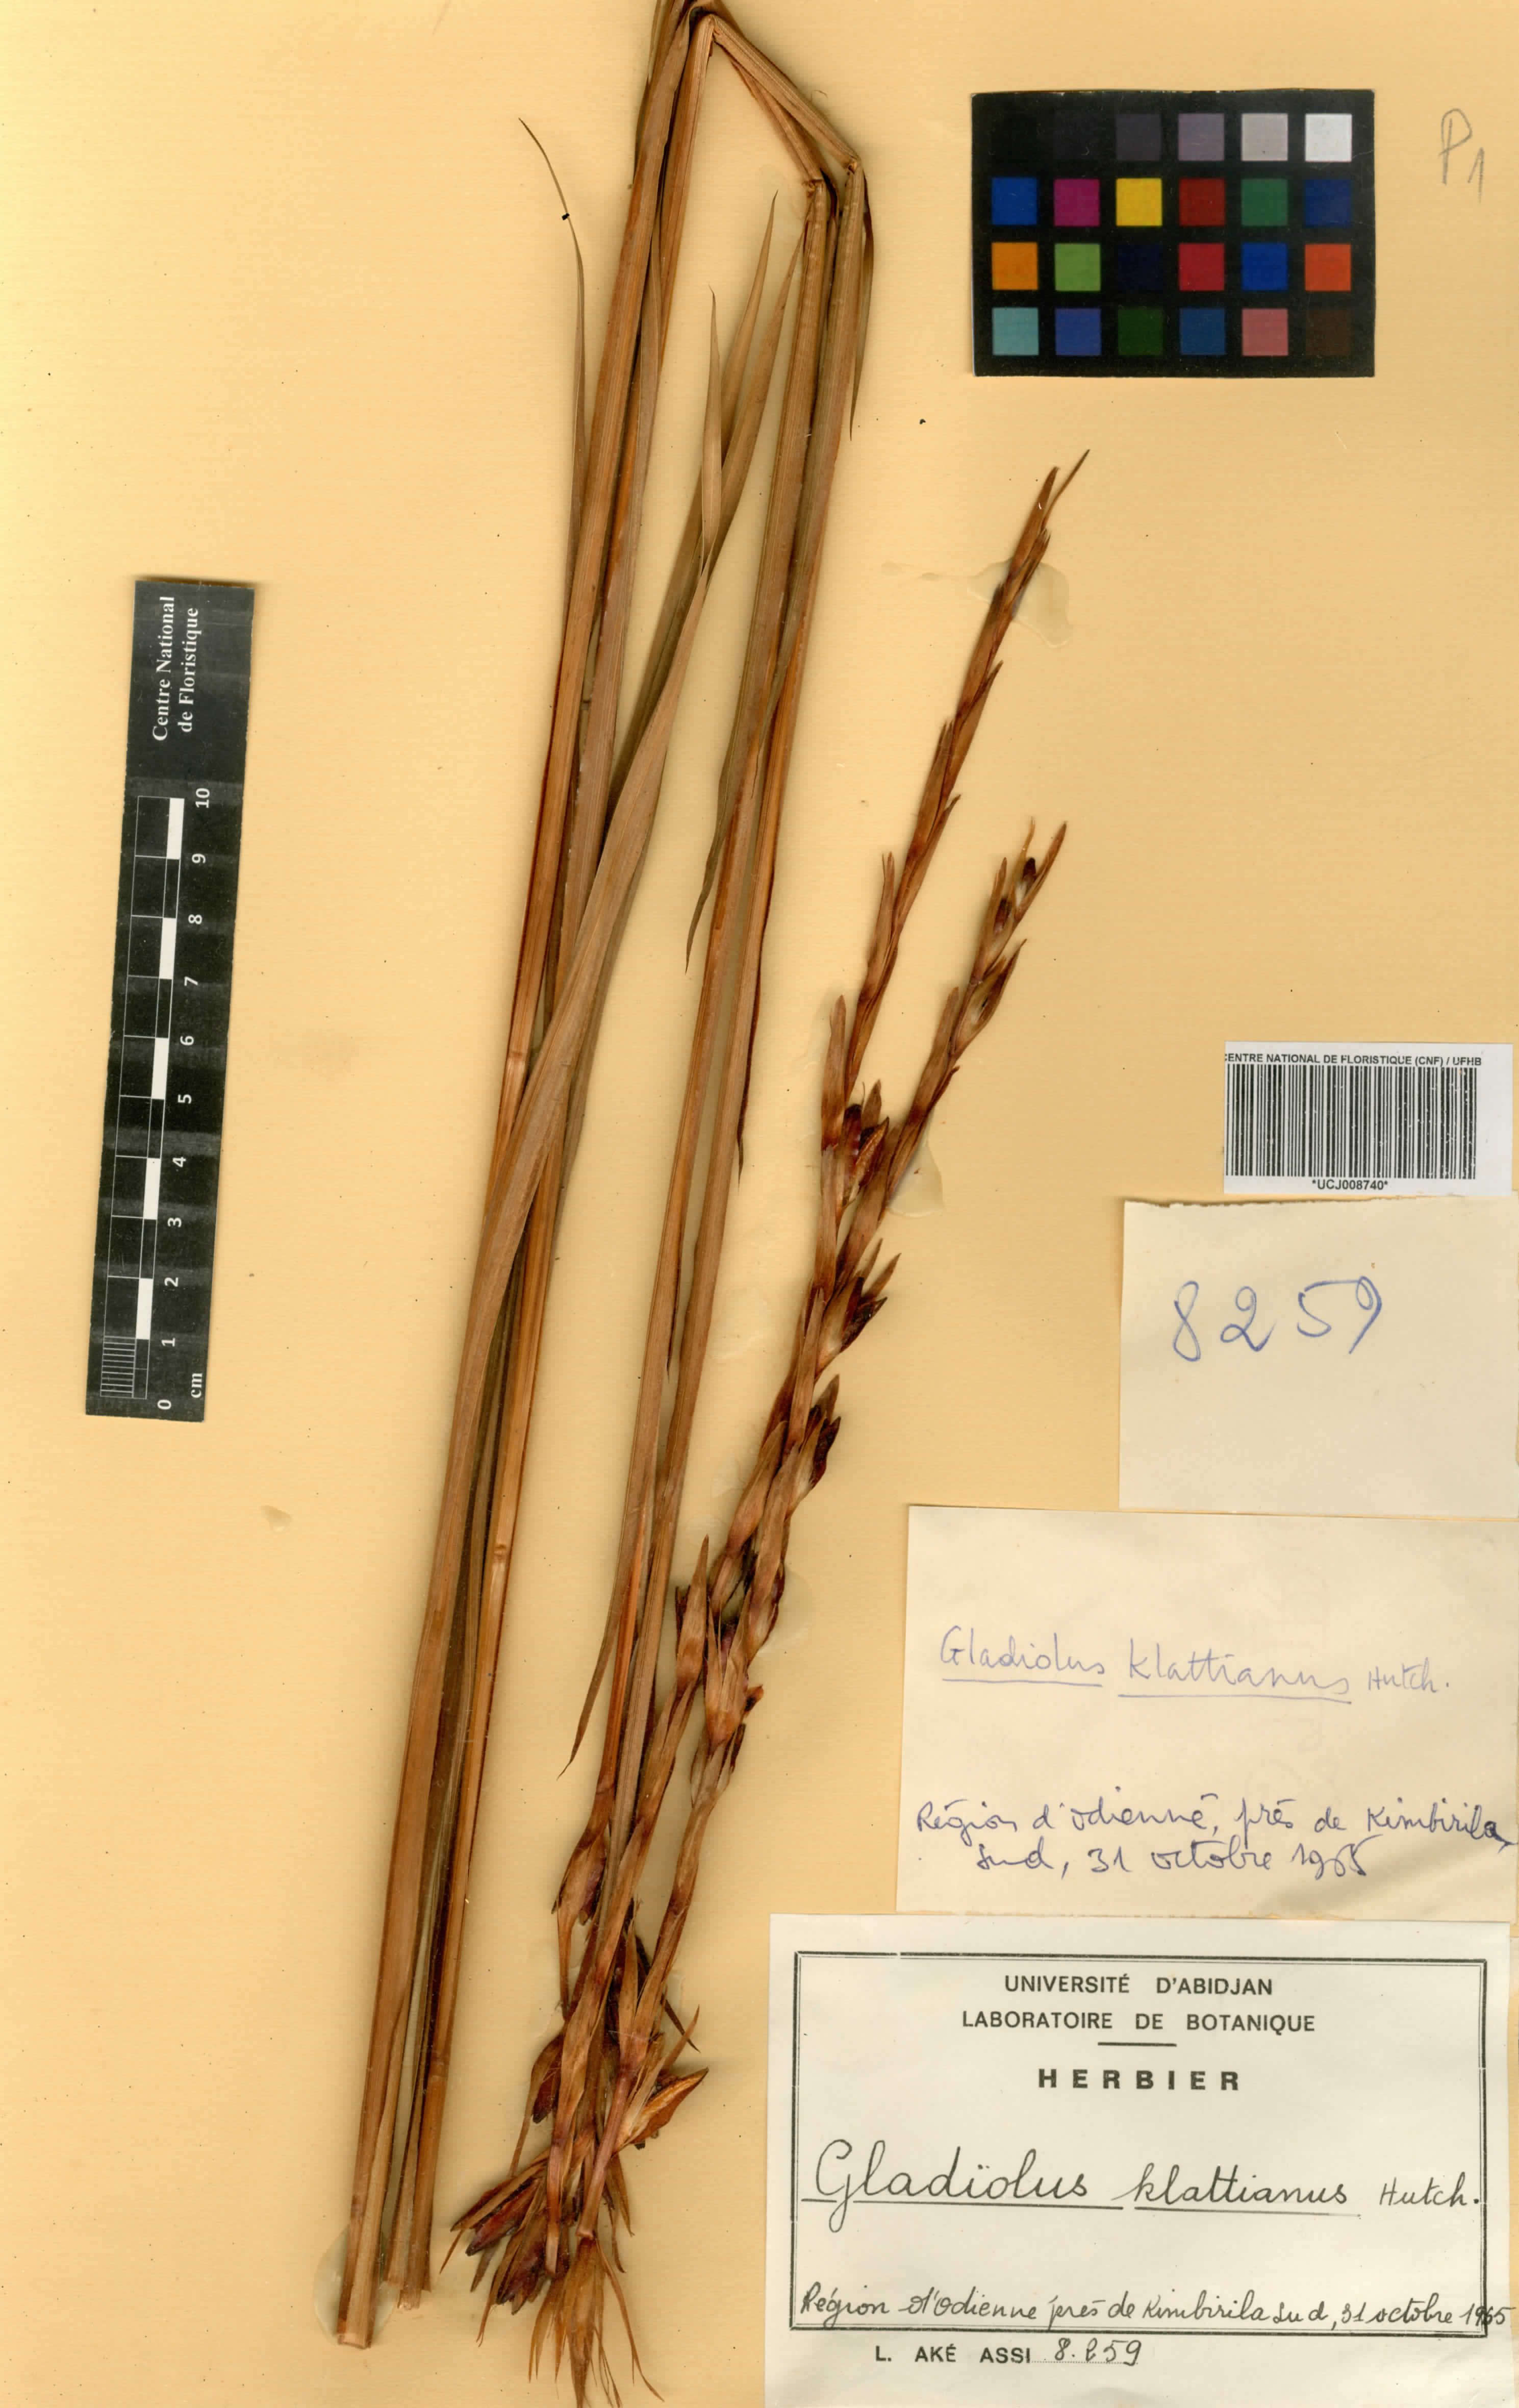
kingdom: Plantae
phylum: Tracheophyta
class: Liliopsida
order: Asparagales
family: Iridaceae
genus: Gladiolus
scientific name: Gladiolus gregarius
